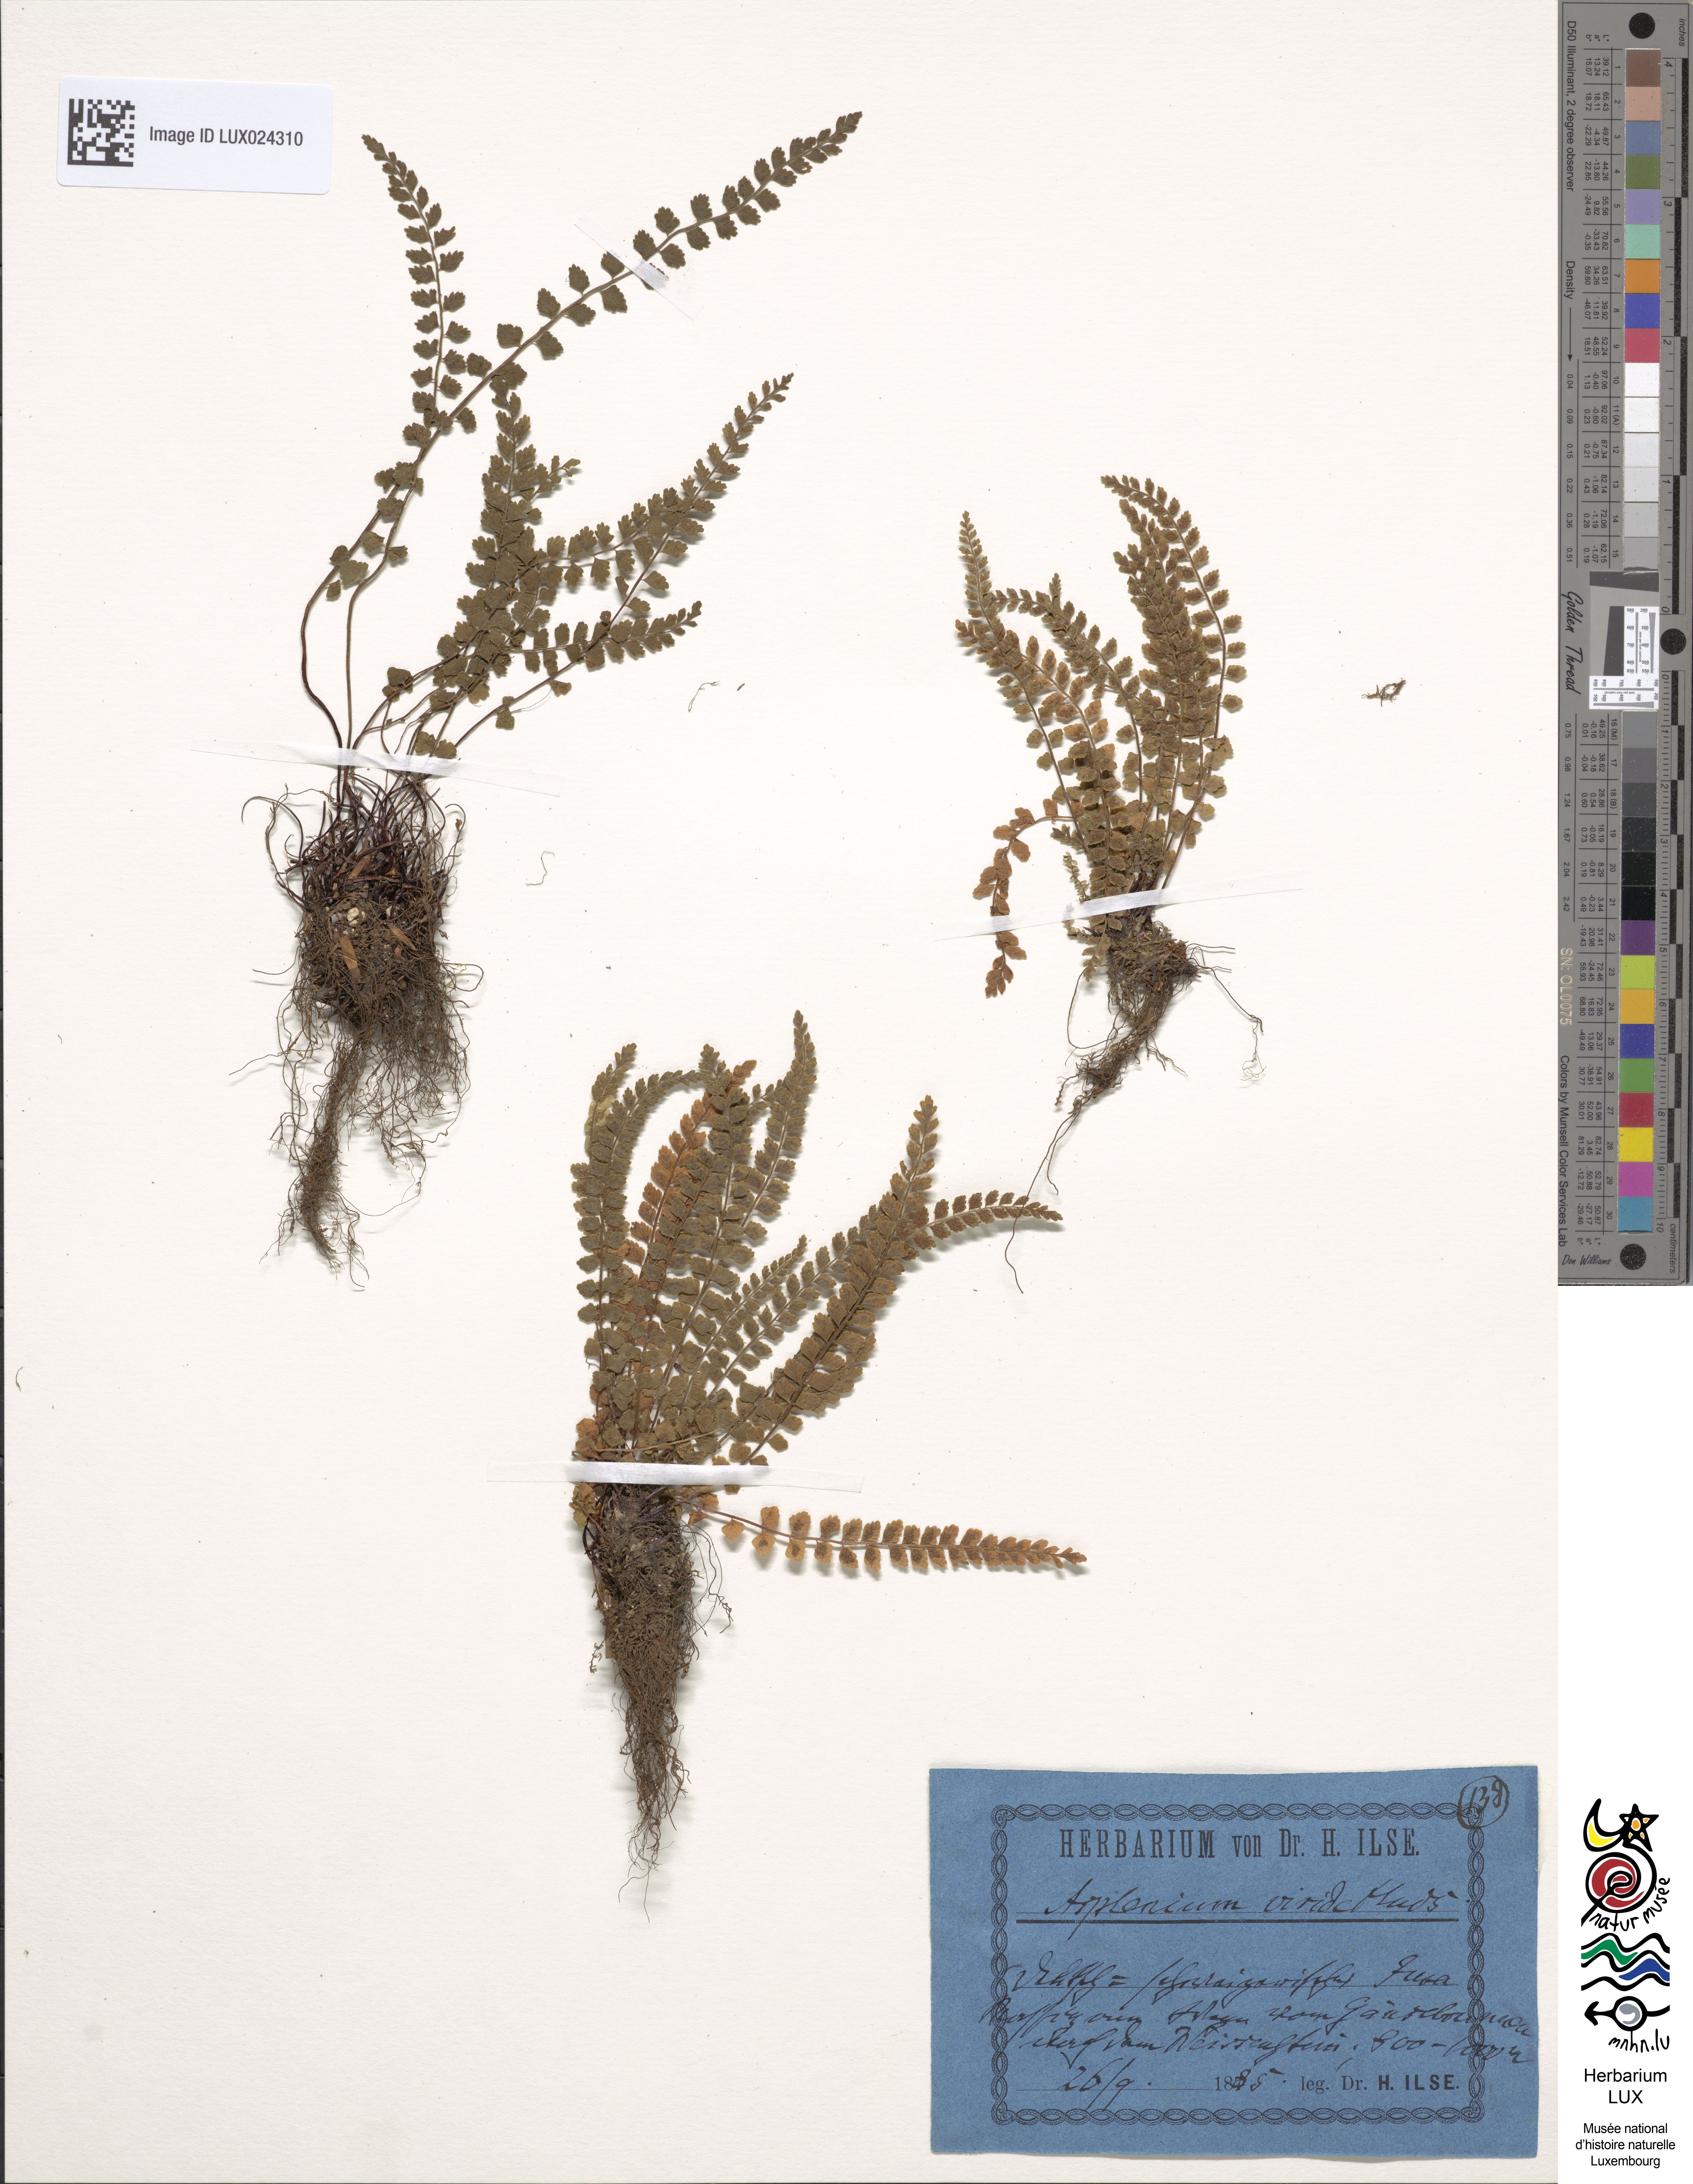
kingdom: Plantae
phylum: Tracheophyta
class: Polypodiopsida
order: Polypodiales
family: Aspleniaceae
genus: Asplenium
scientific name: Asplenium viride
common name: Green spleenwort
